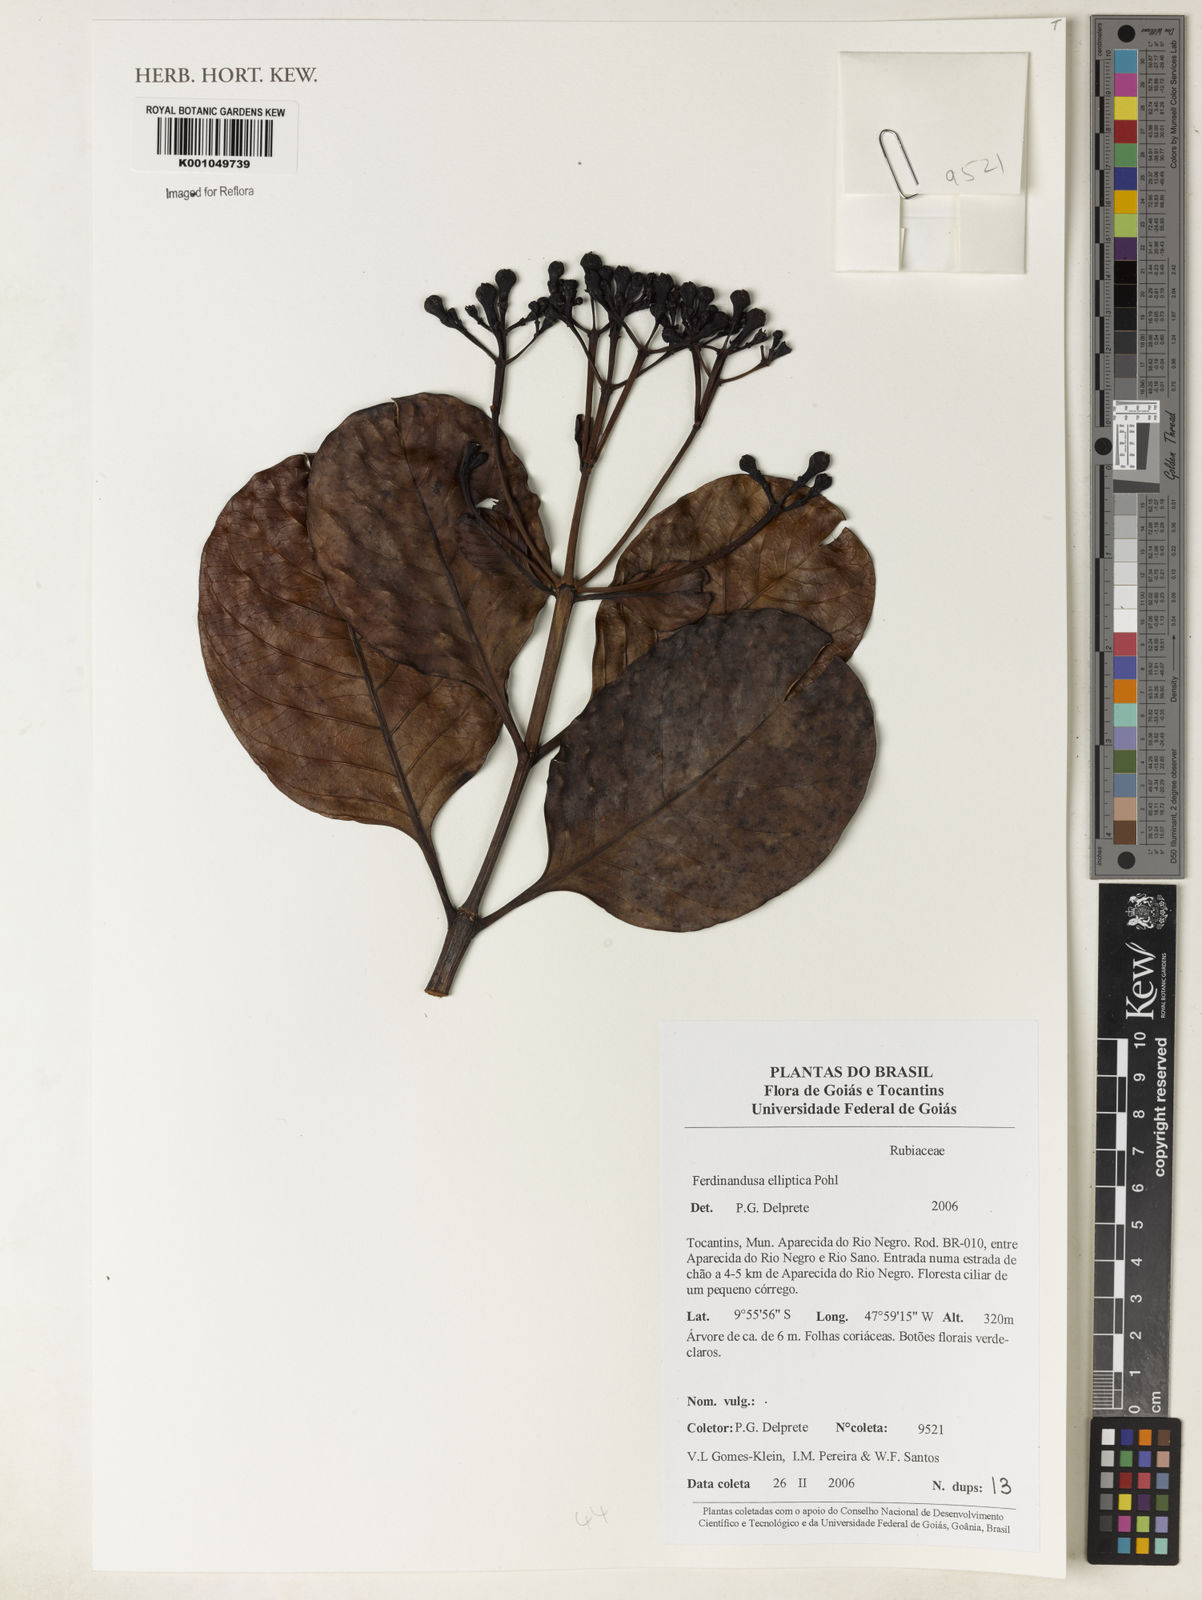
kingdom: Plantae
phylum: Tracheophyta
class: Magnoliopsida
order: Gentianales
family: Rubiaceae
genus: Ferdinandusa
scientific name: Ferdinandusa elliptica
